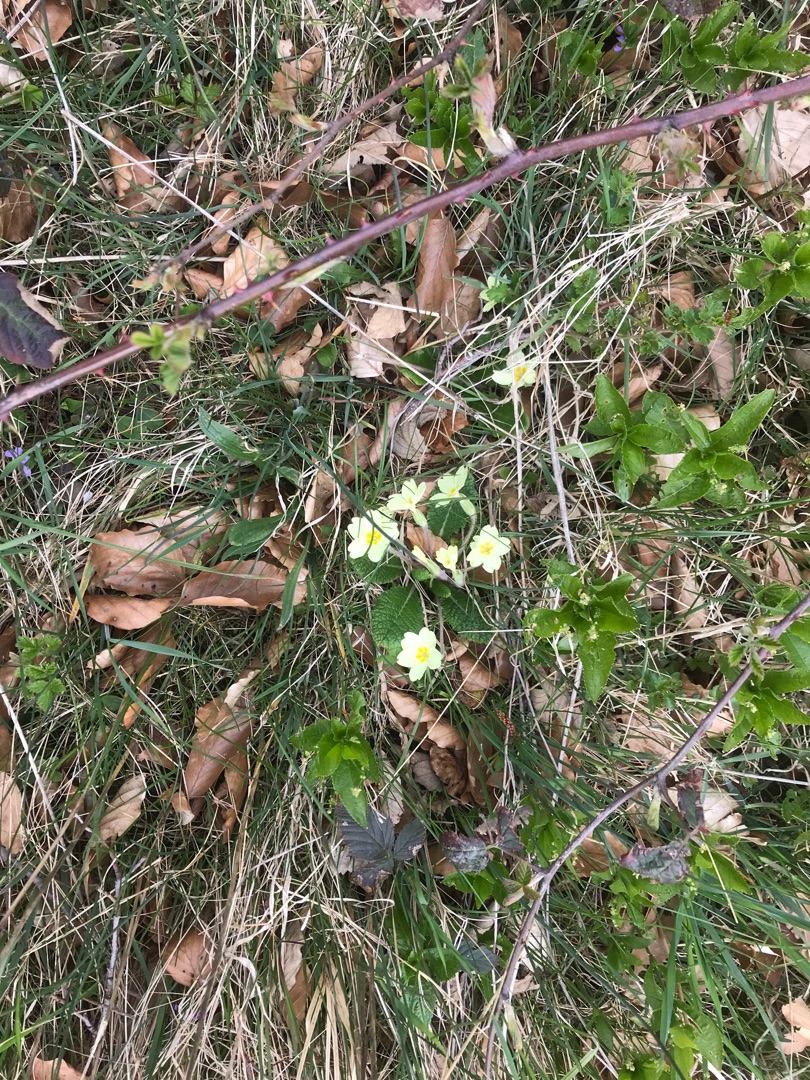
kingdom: Plantae
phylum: Tracheophyta
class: Magnoliopsida
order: Ericales
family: Primulaceae
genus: Primula
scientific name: Primula vulgaris
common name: Storblomstret kodriver
